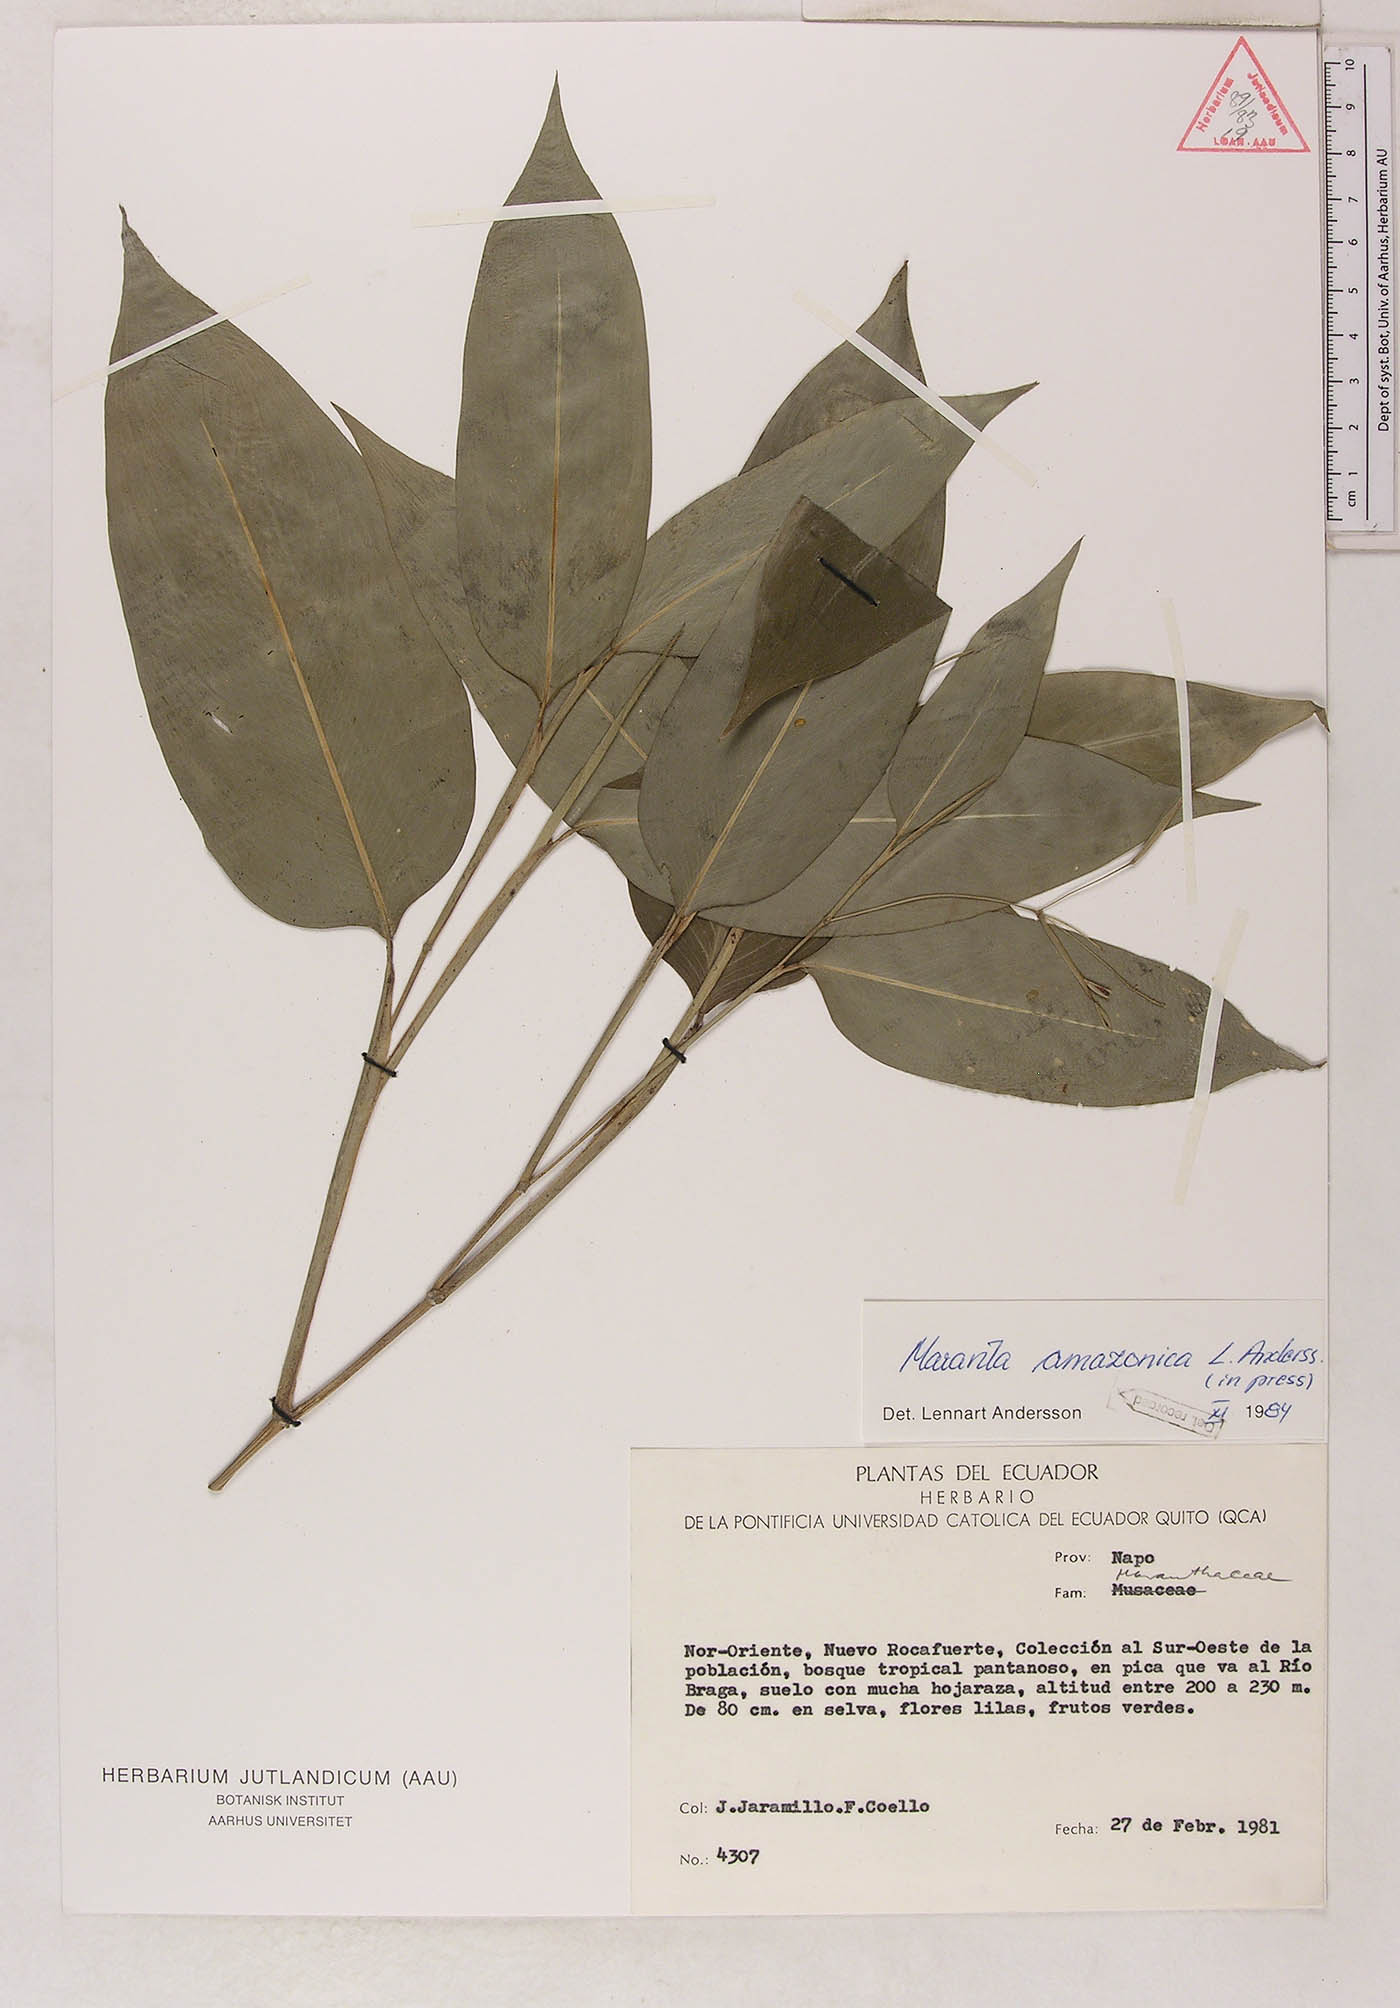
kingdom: Plantae
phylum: Tracheophyta
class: Liliopsida
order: Zingiberales
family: Marantaceae
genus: Maranta
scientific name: Maranta amazonica
